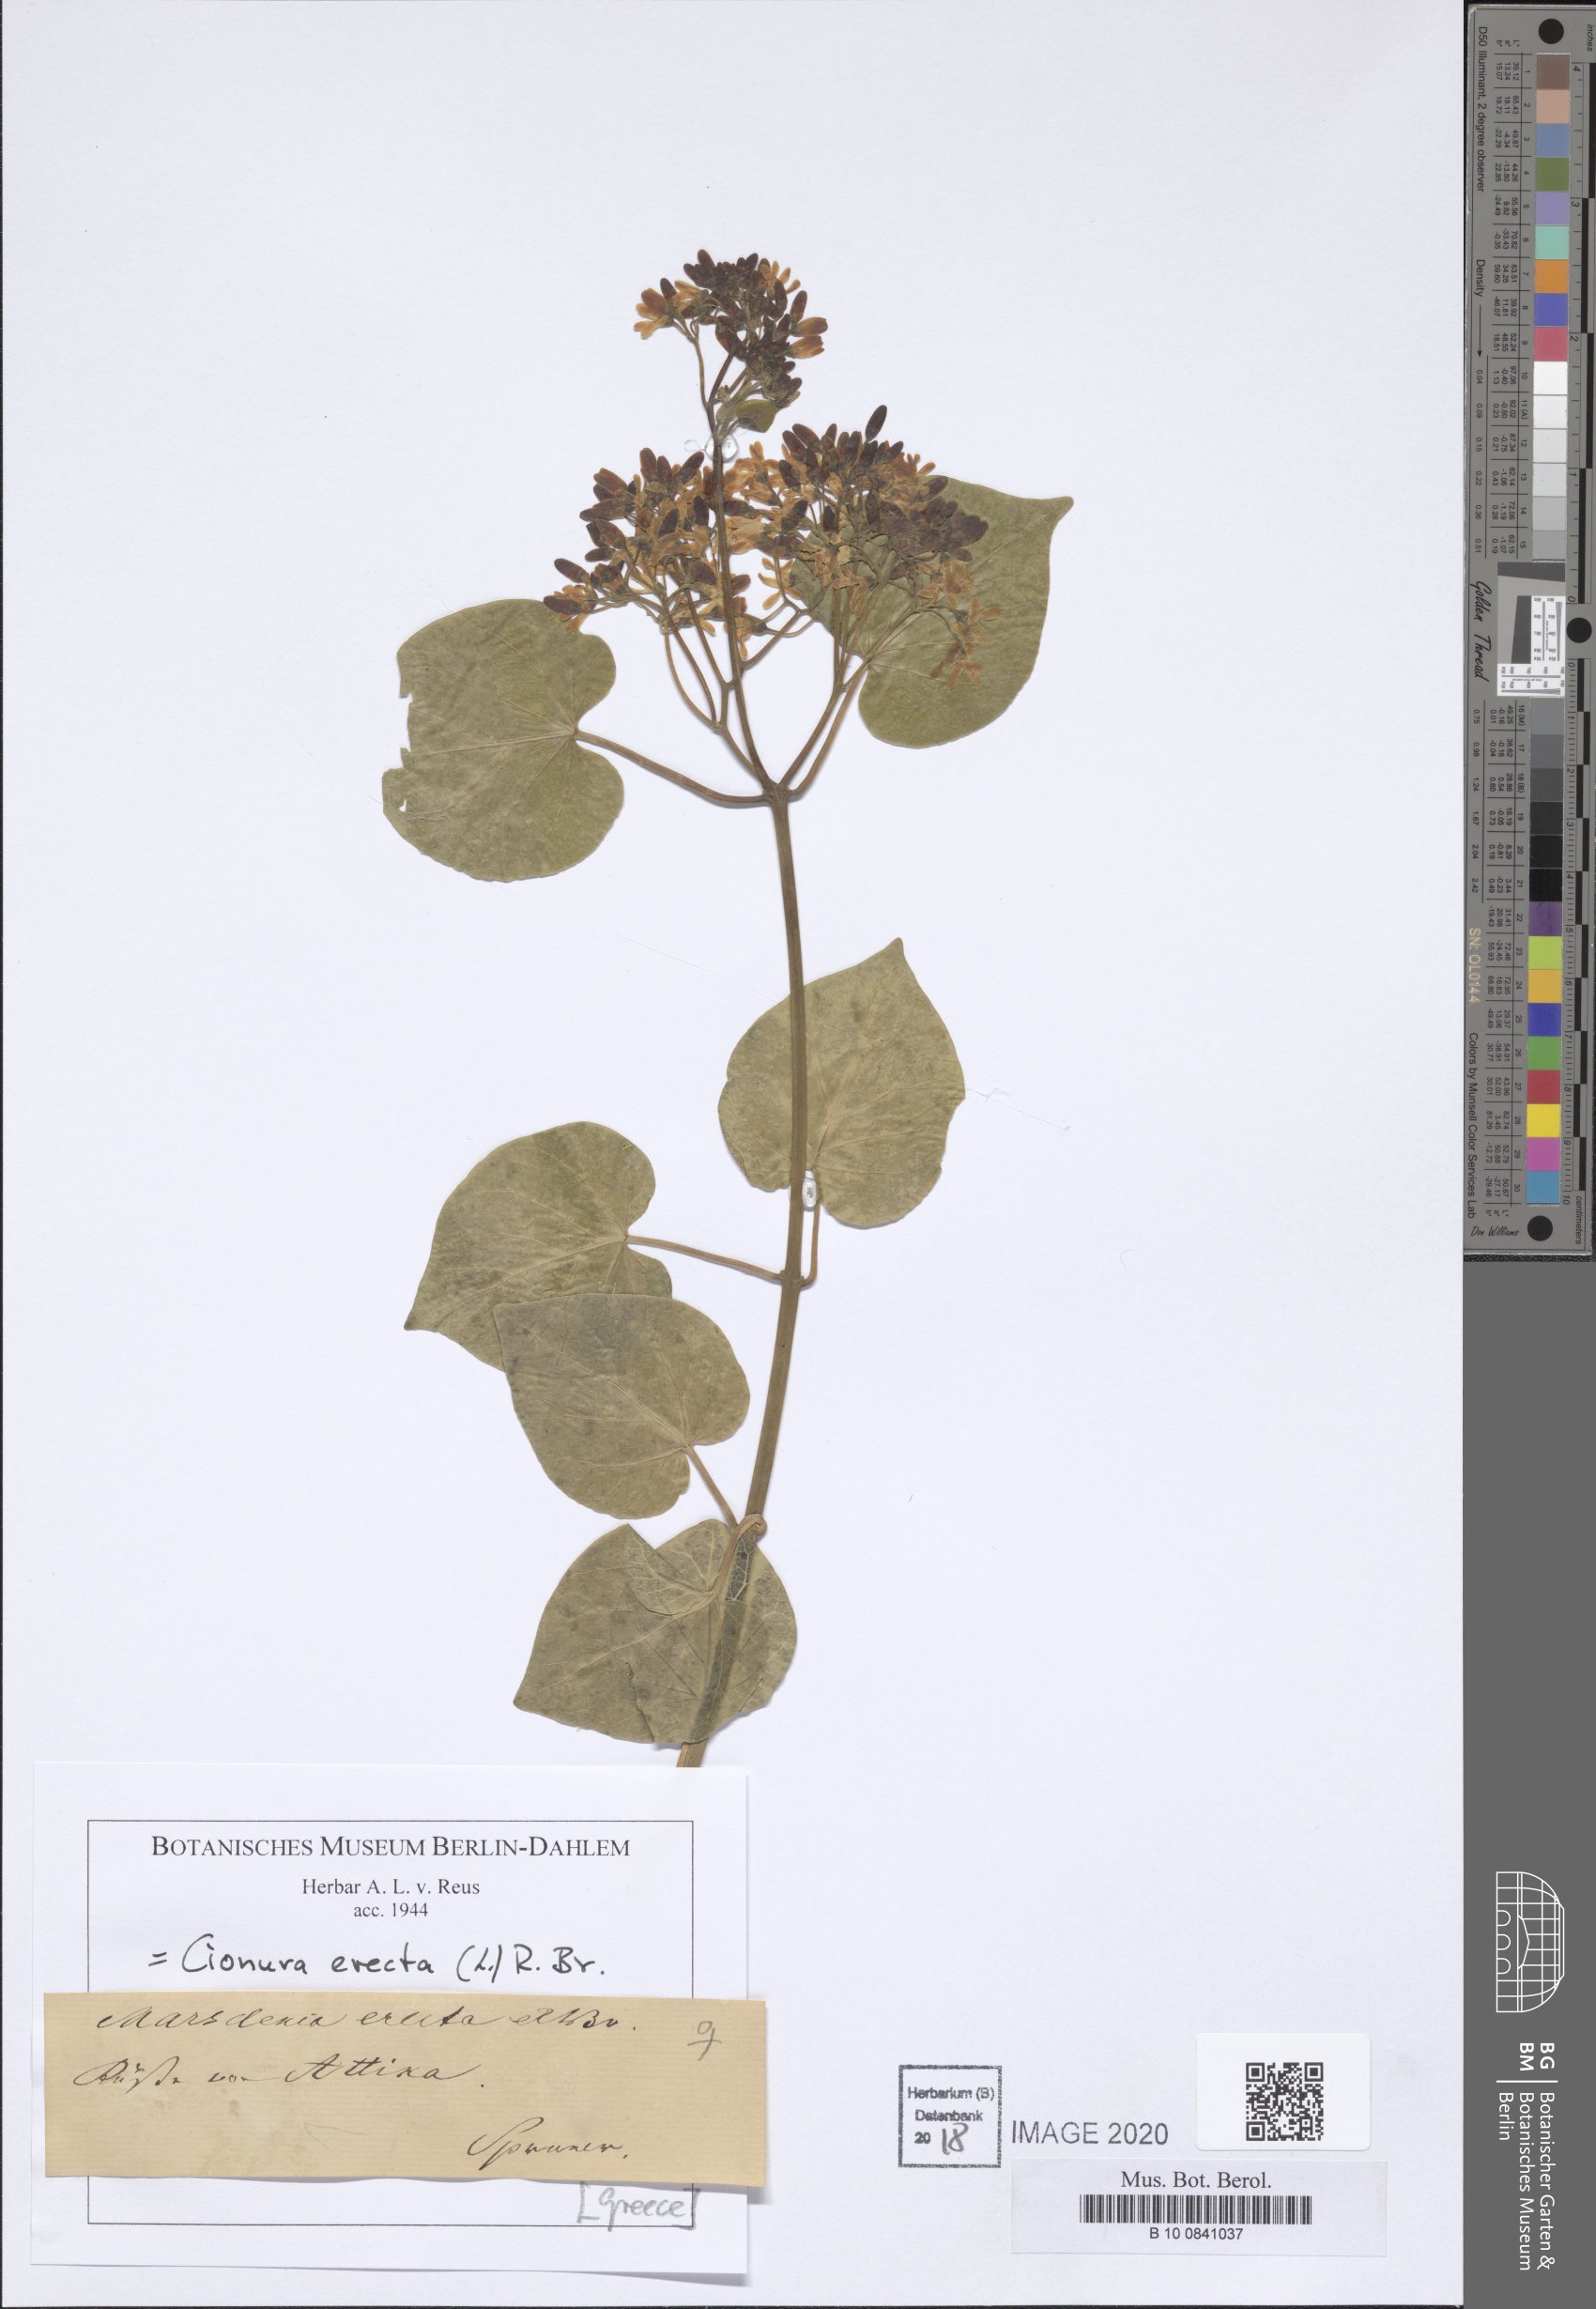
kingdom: Plantae
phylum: Tracheophyta
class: Magnoliopsida
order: Gentianales
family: Apocynaceae
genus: Cionura
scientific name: Cionura erecta
